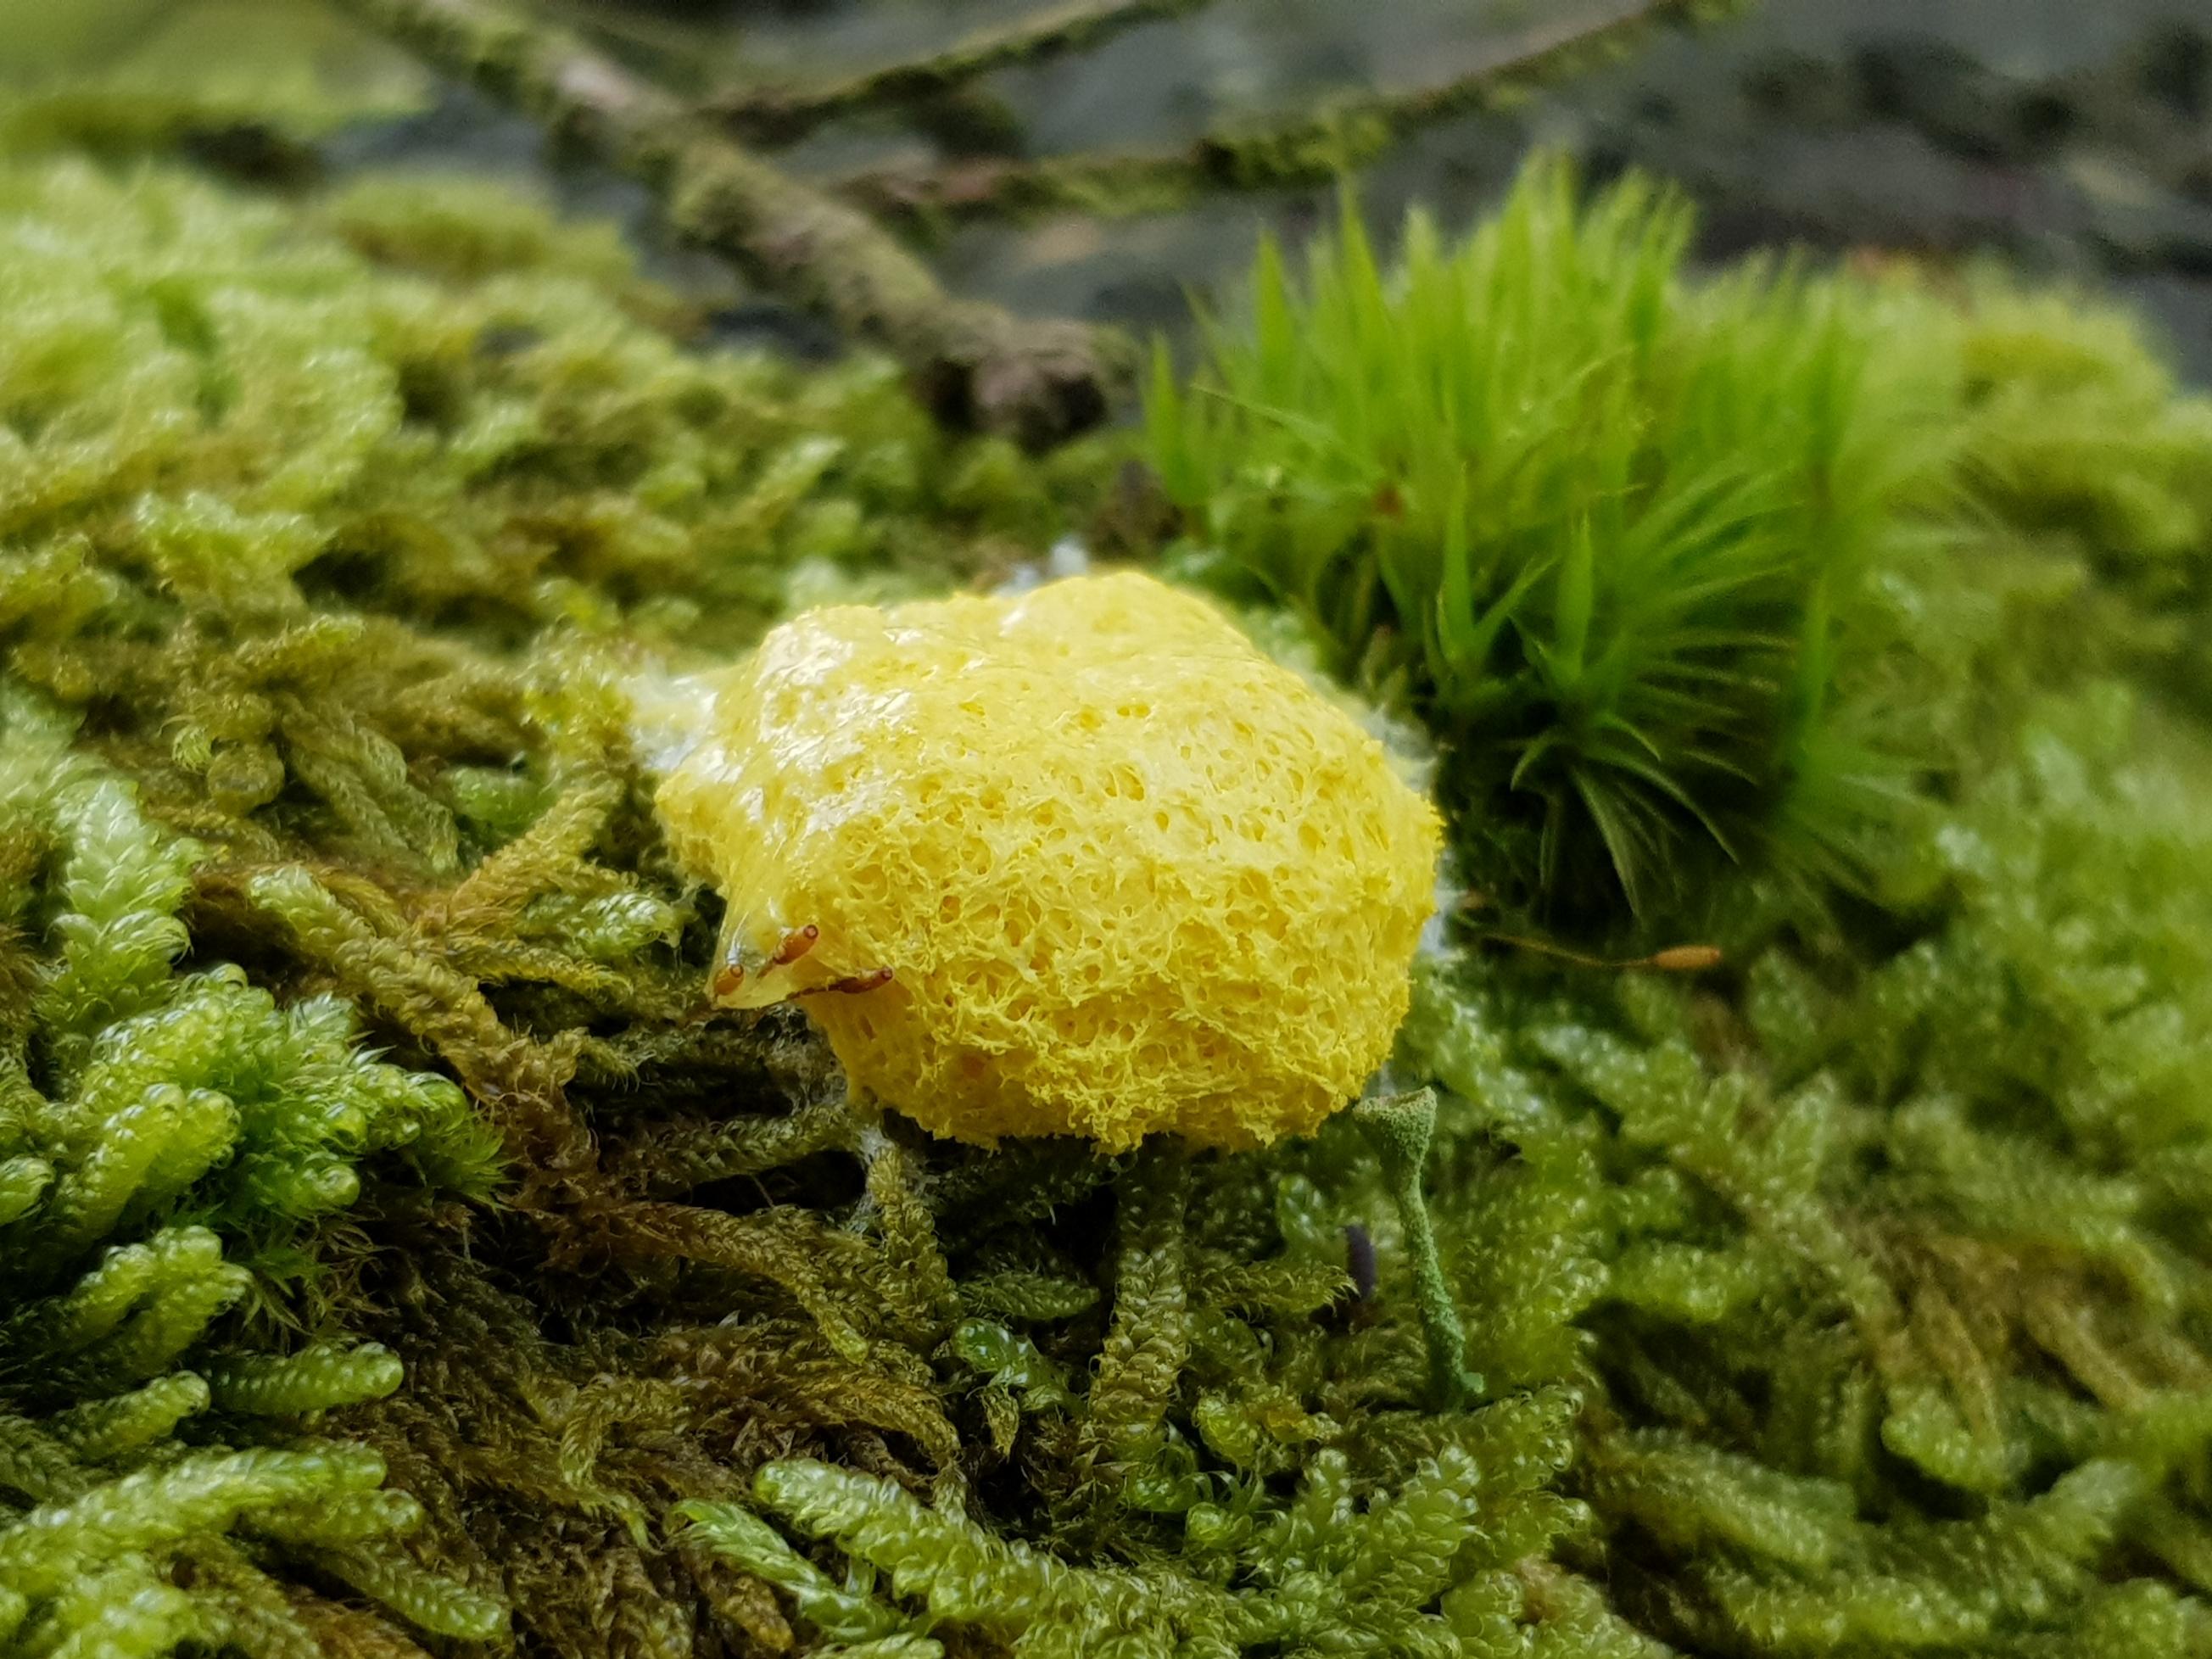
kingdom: Protozoa
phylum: Mycetozoa
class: Myxomycetes
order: Physarales
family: Physaraceae
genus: Fuligo
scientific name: Fuligo septica
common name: gul troldsmør
